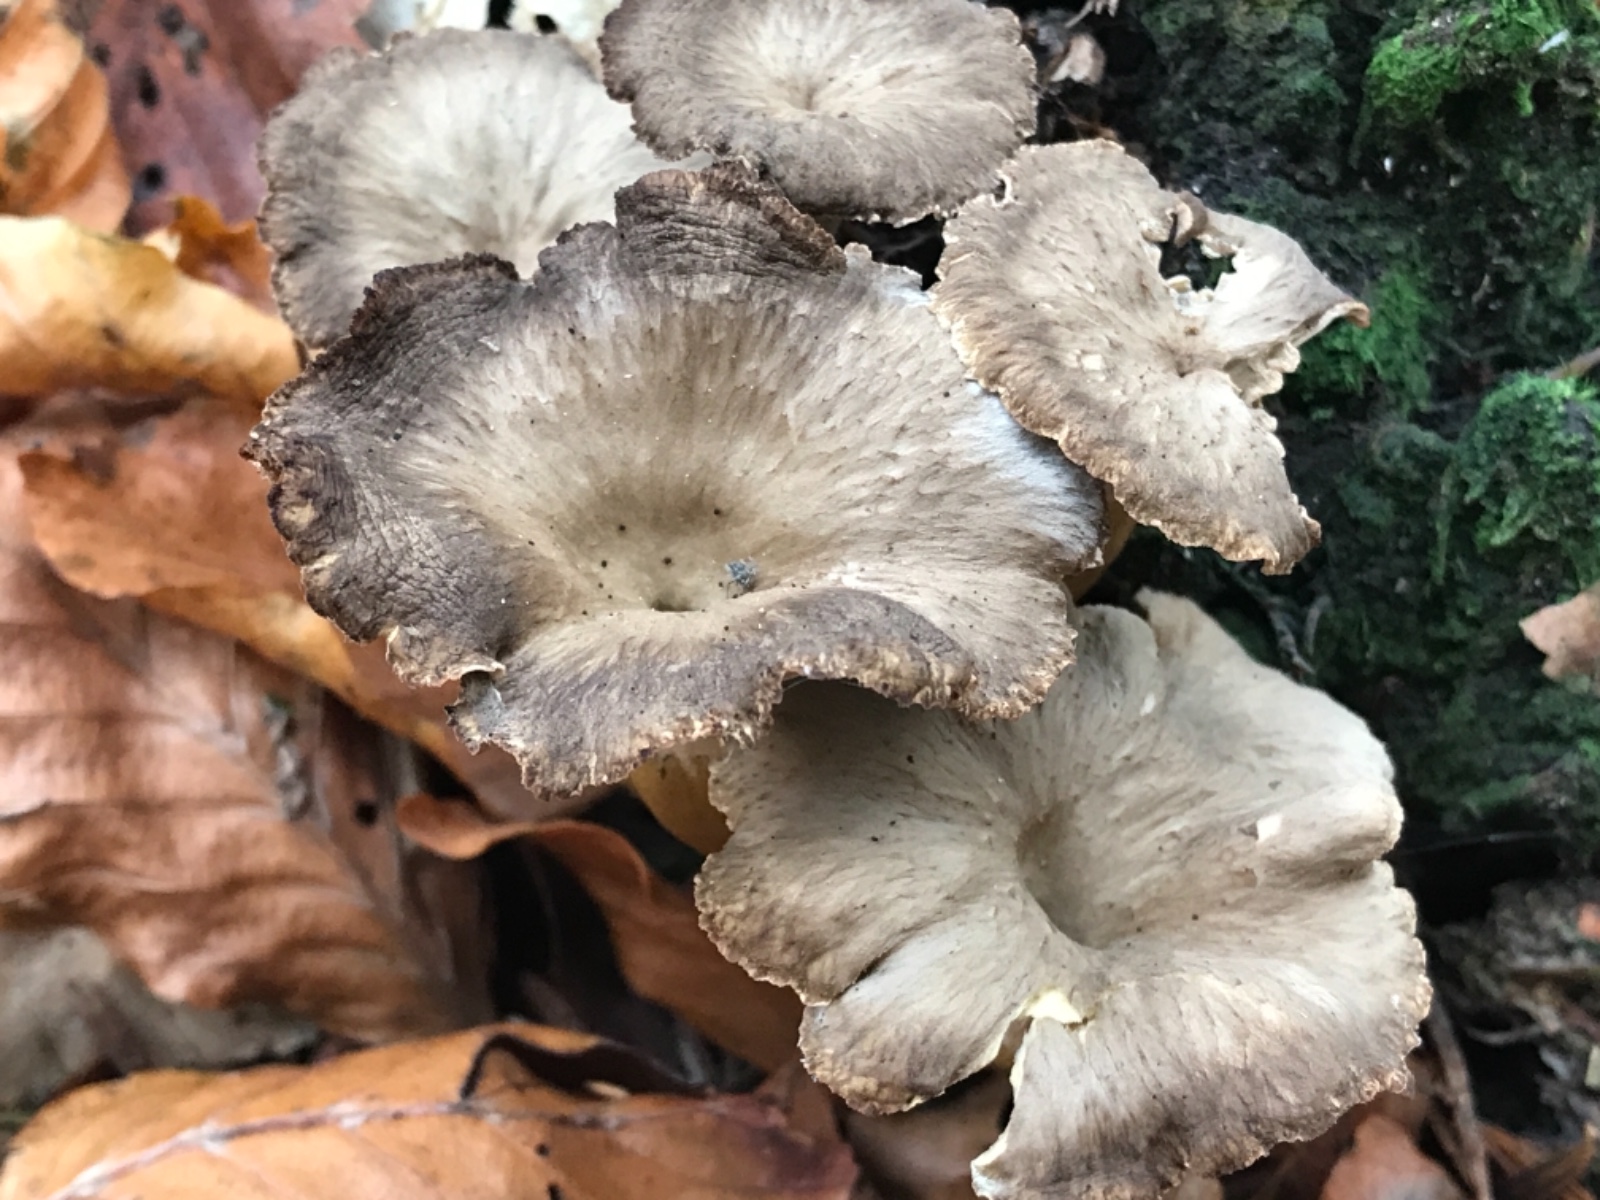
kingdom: Fungi
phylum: Basidiomycota
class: Agaricomycetes
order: Cantharellales
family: Hydnaceae
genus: Craterellus
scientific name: Craterellus tubaeformis
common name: tragt-kantarel
